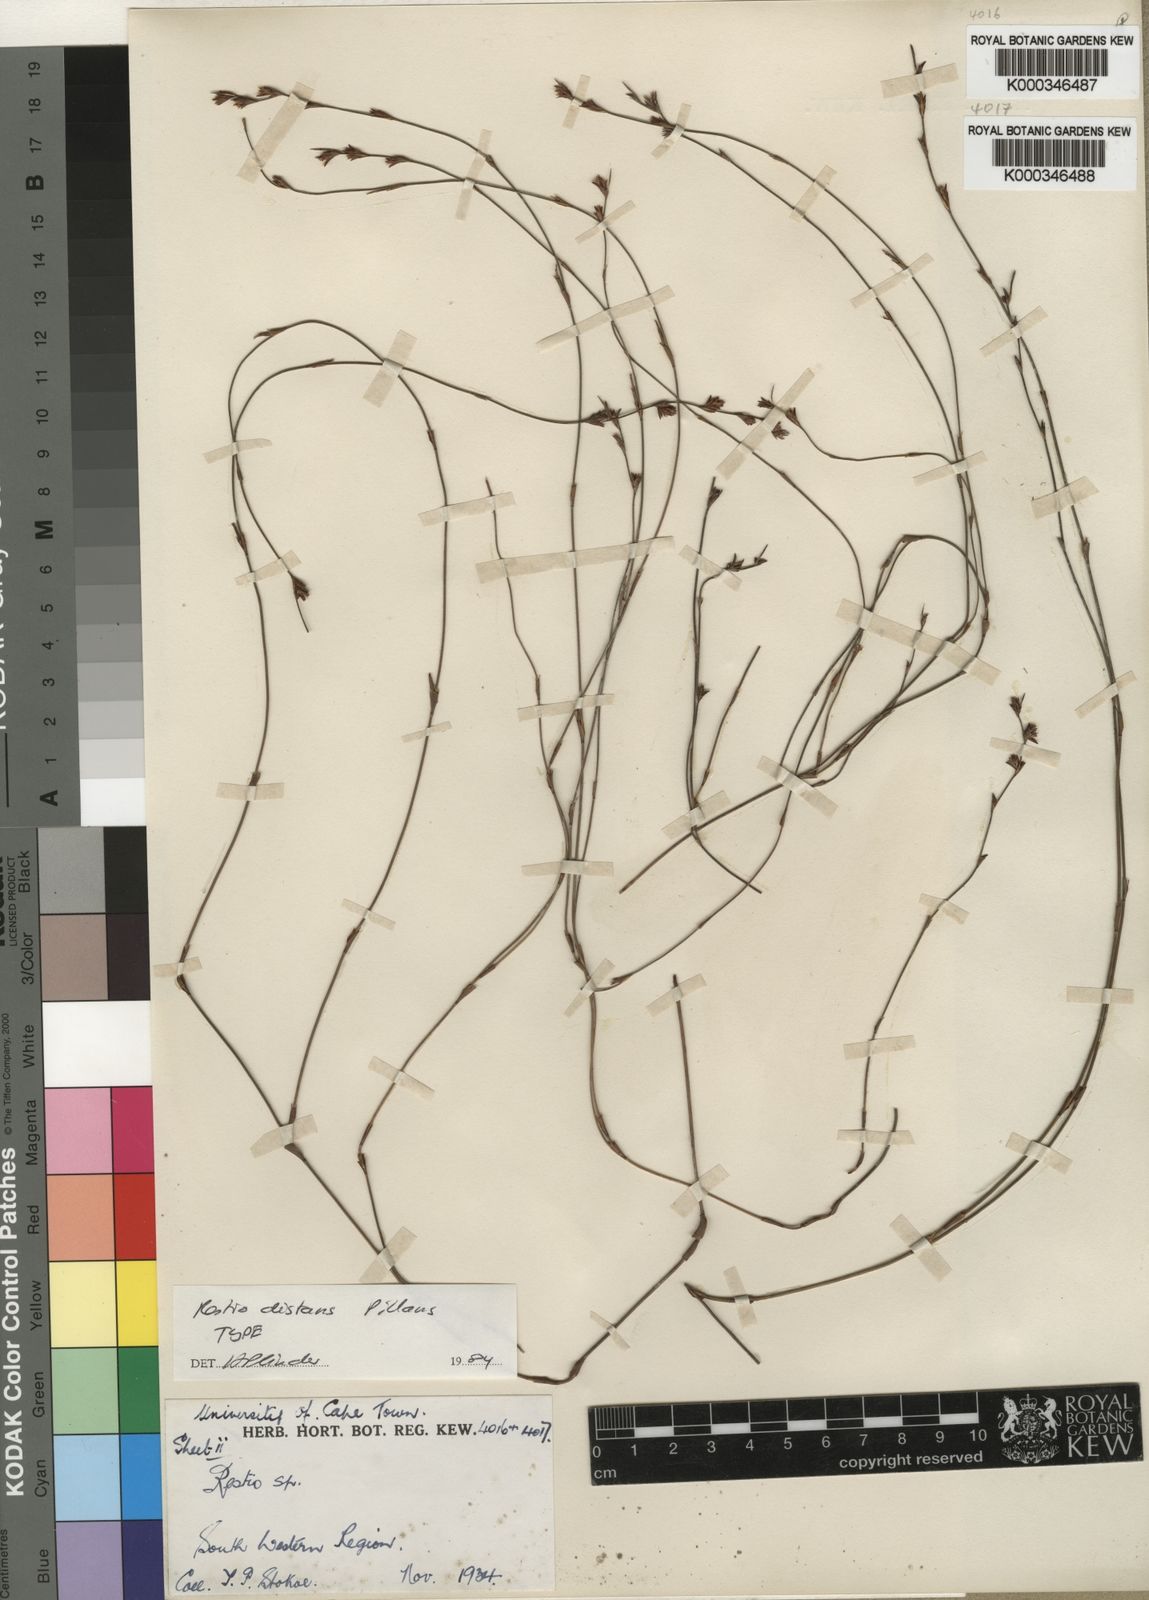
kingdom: Plantae
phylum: Tracheophyta
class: Liliopsida
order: Poales
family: Restionaceae
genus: Restio
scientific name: Restio distans
